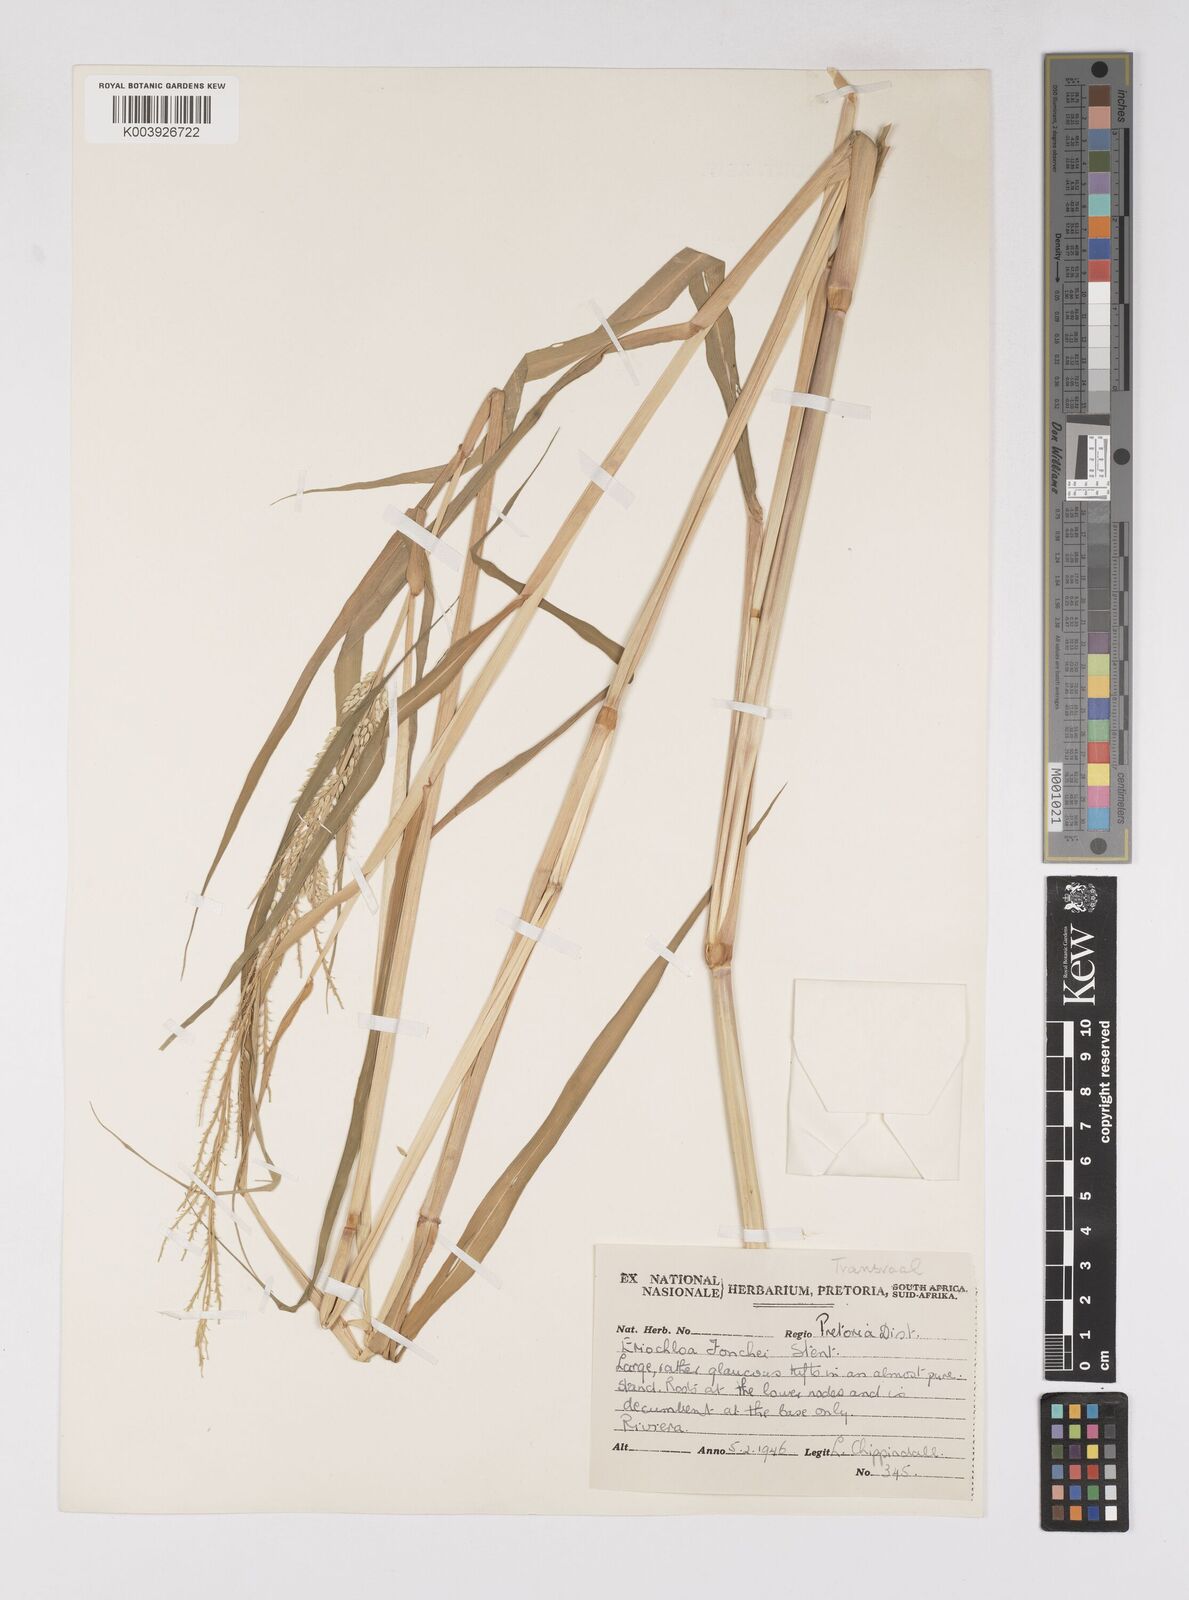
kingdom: Plantae
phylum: Tracheophyta
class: Liliopsida
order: Poales
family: Poaceae
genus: Eriochloa
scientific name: Eriochloa barbatus
